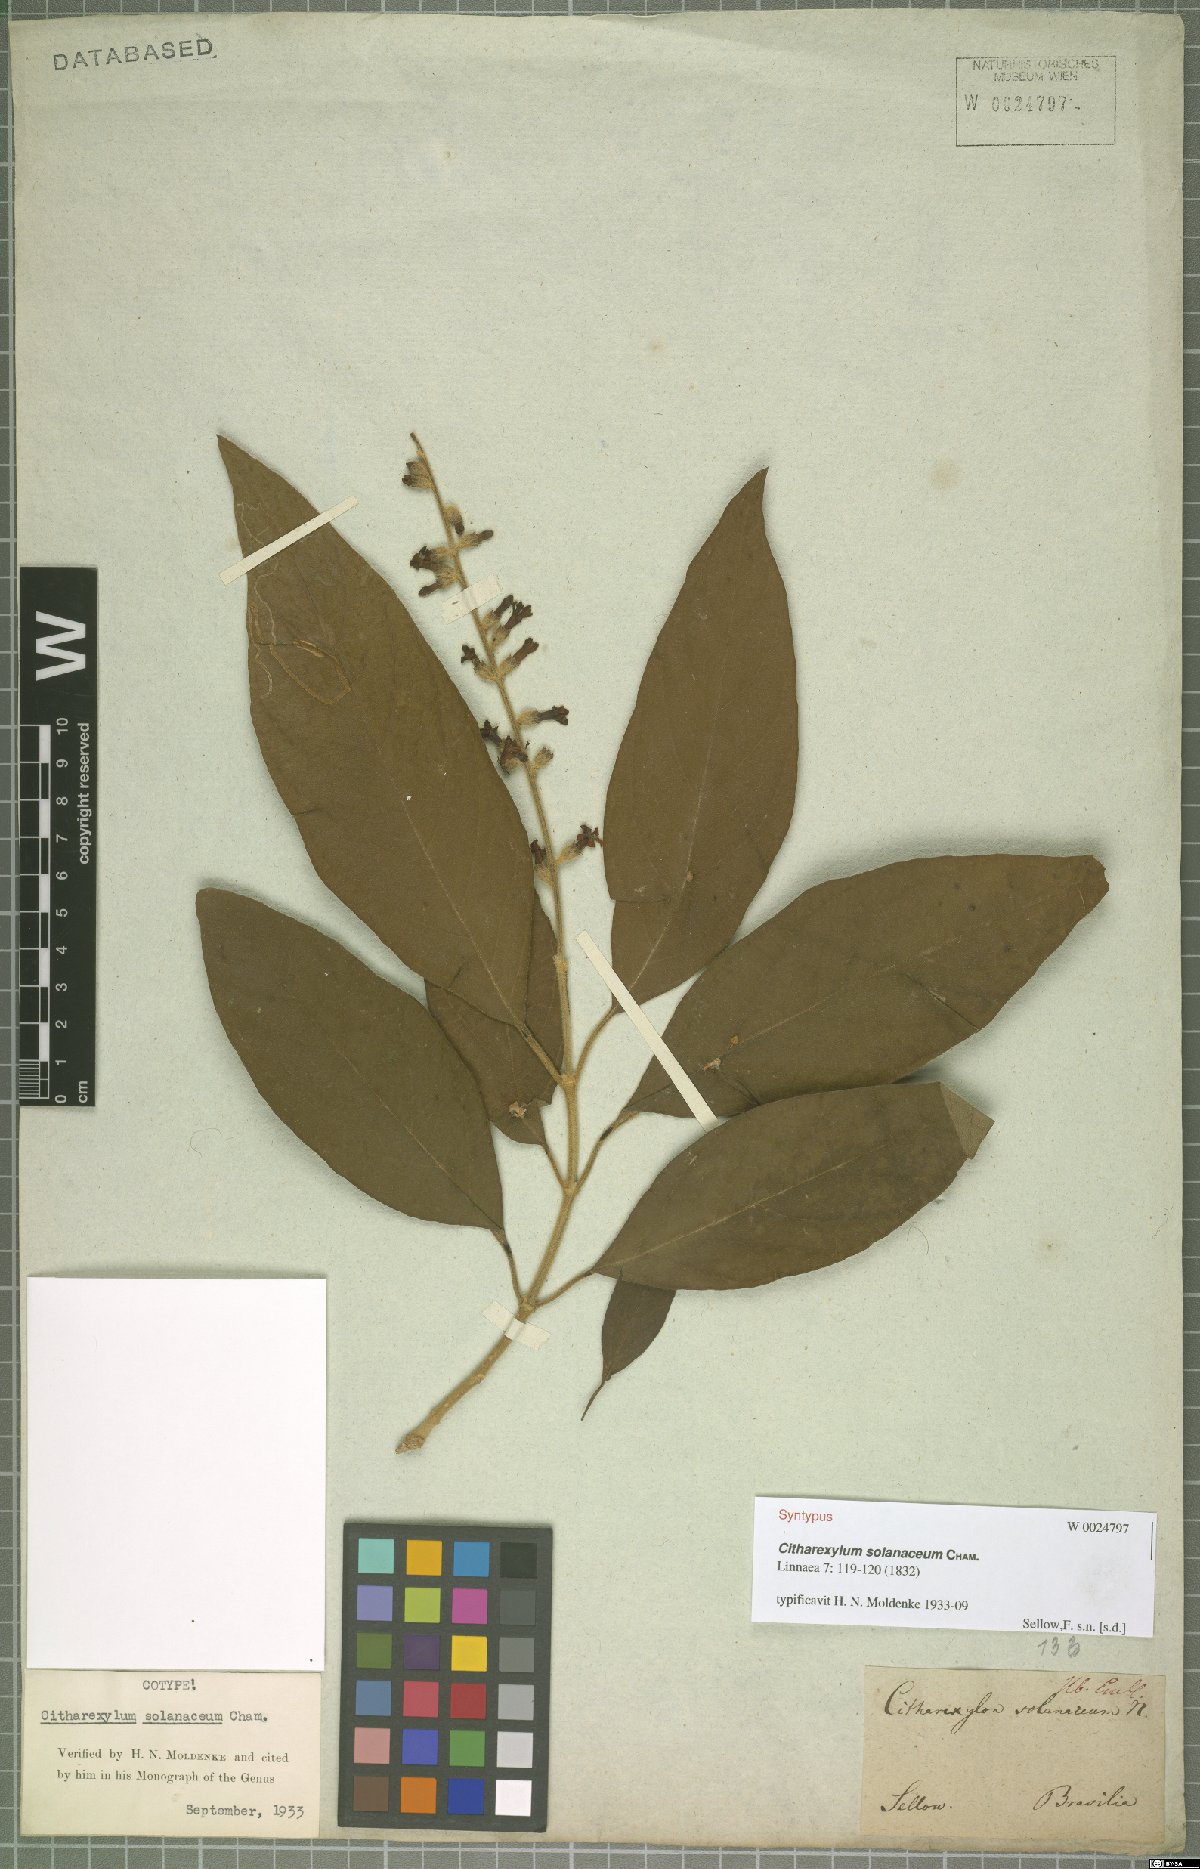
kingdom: Plantae
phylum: Tracheophyta
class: Magnoliopsida
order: Lamiales
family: Verbenaceae
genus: Citharexylum
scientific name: Citharexylum solanaceum
